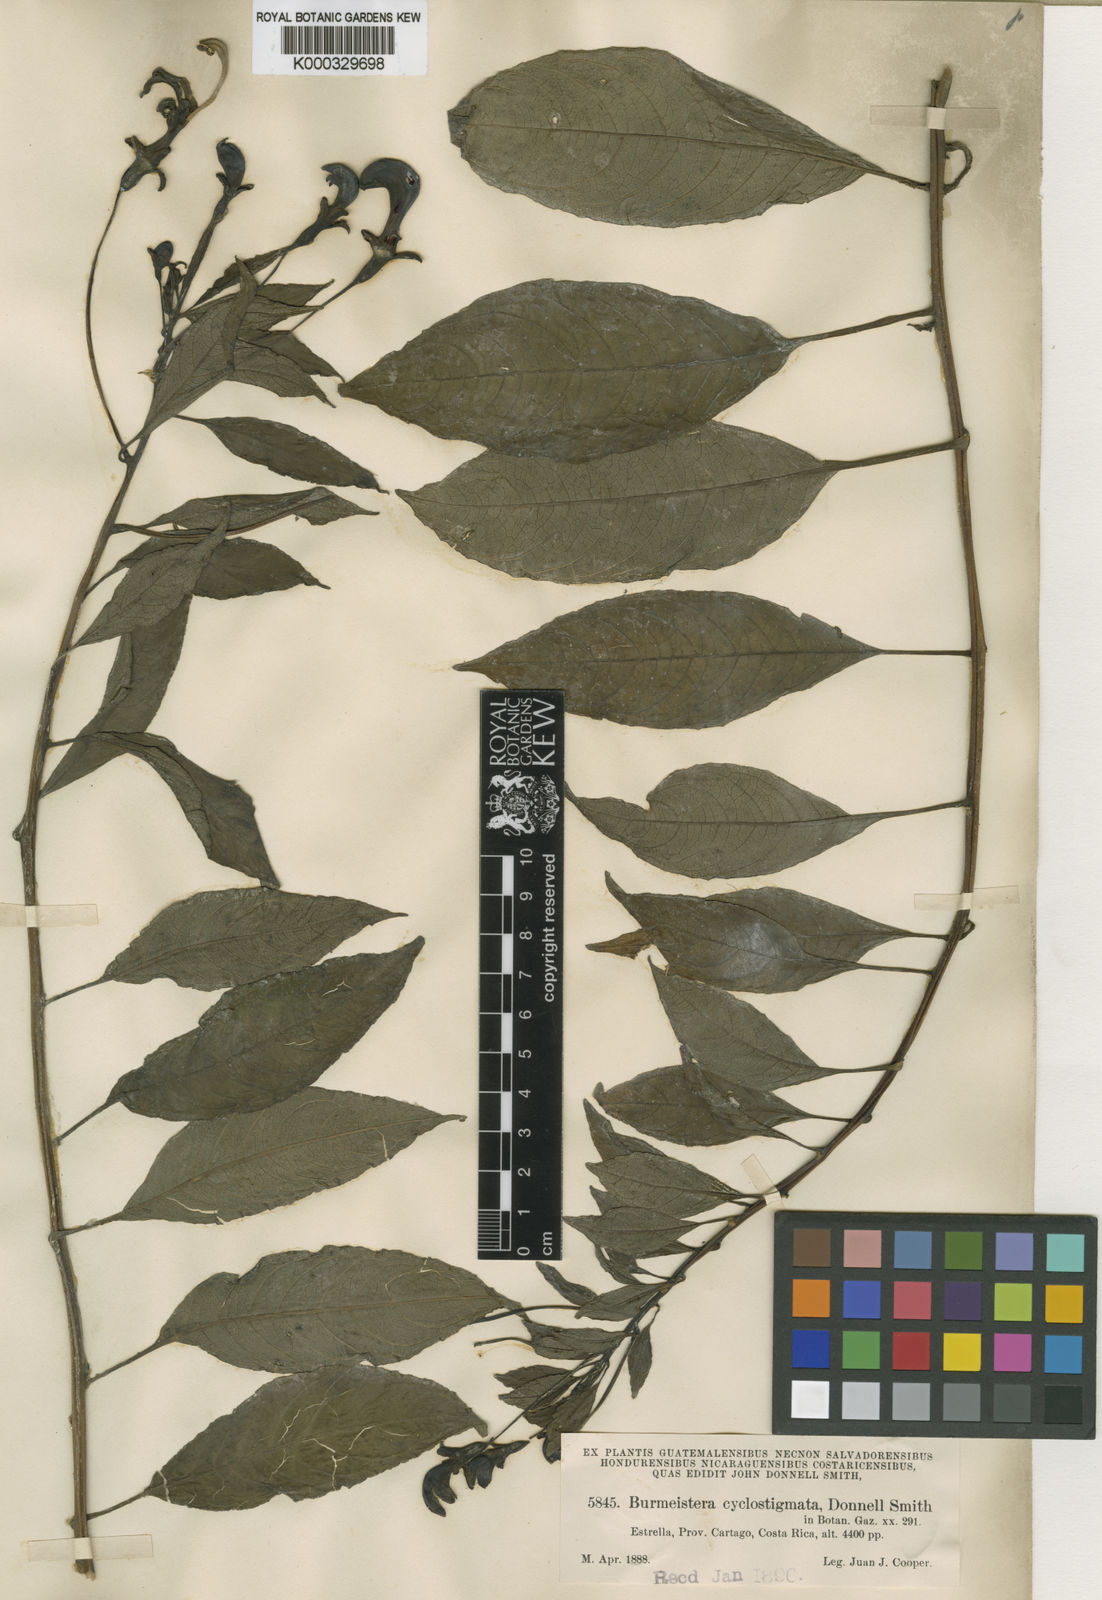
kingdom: Plantae
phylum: Tracheophyta
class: Magnoliopsida
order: Asterales
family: Campanulaceae
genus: Burmeistera
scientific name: Burmeistera cyclostigmata
